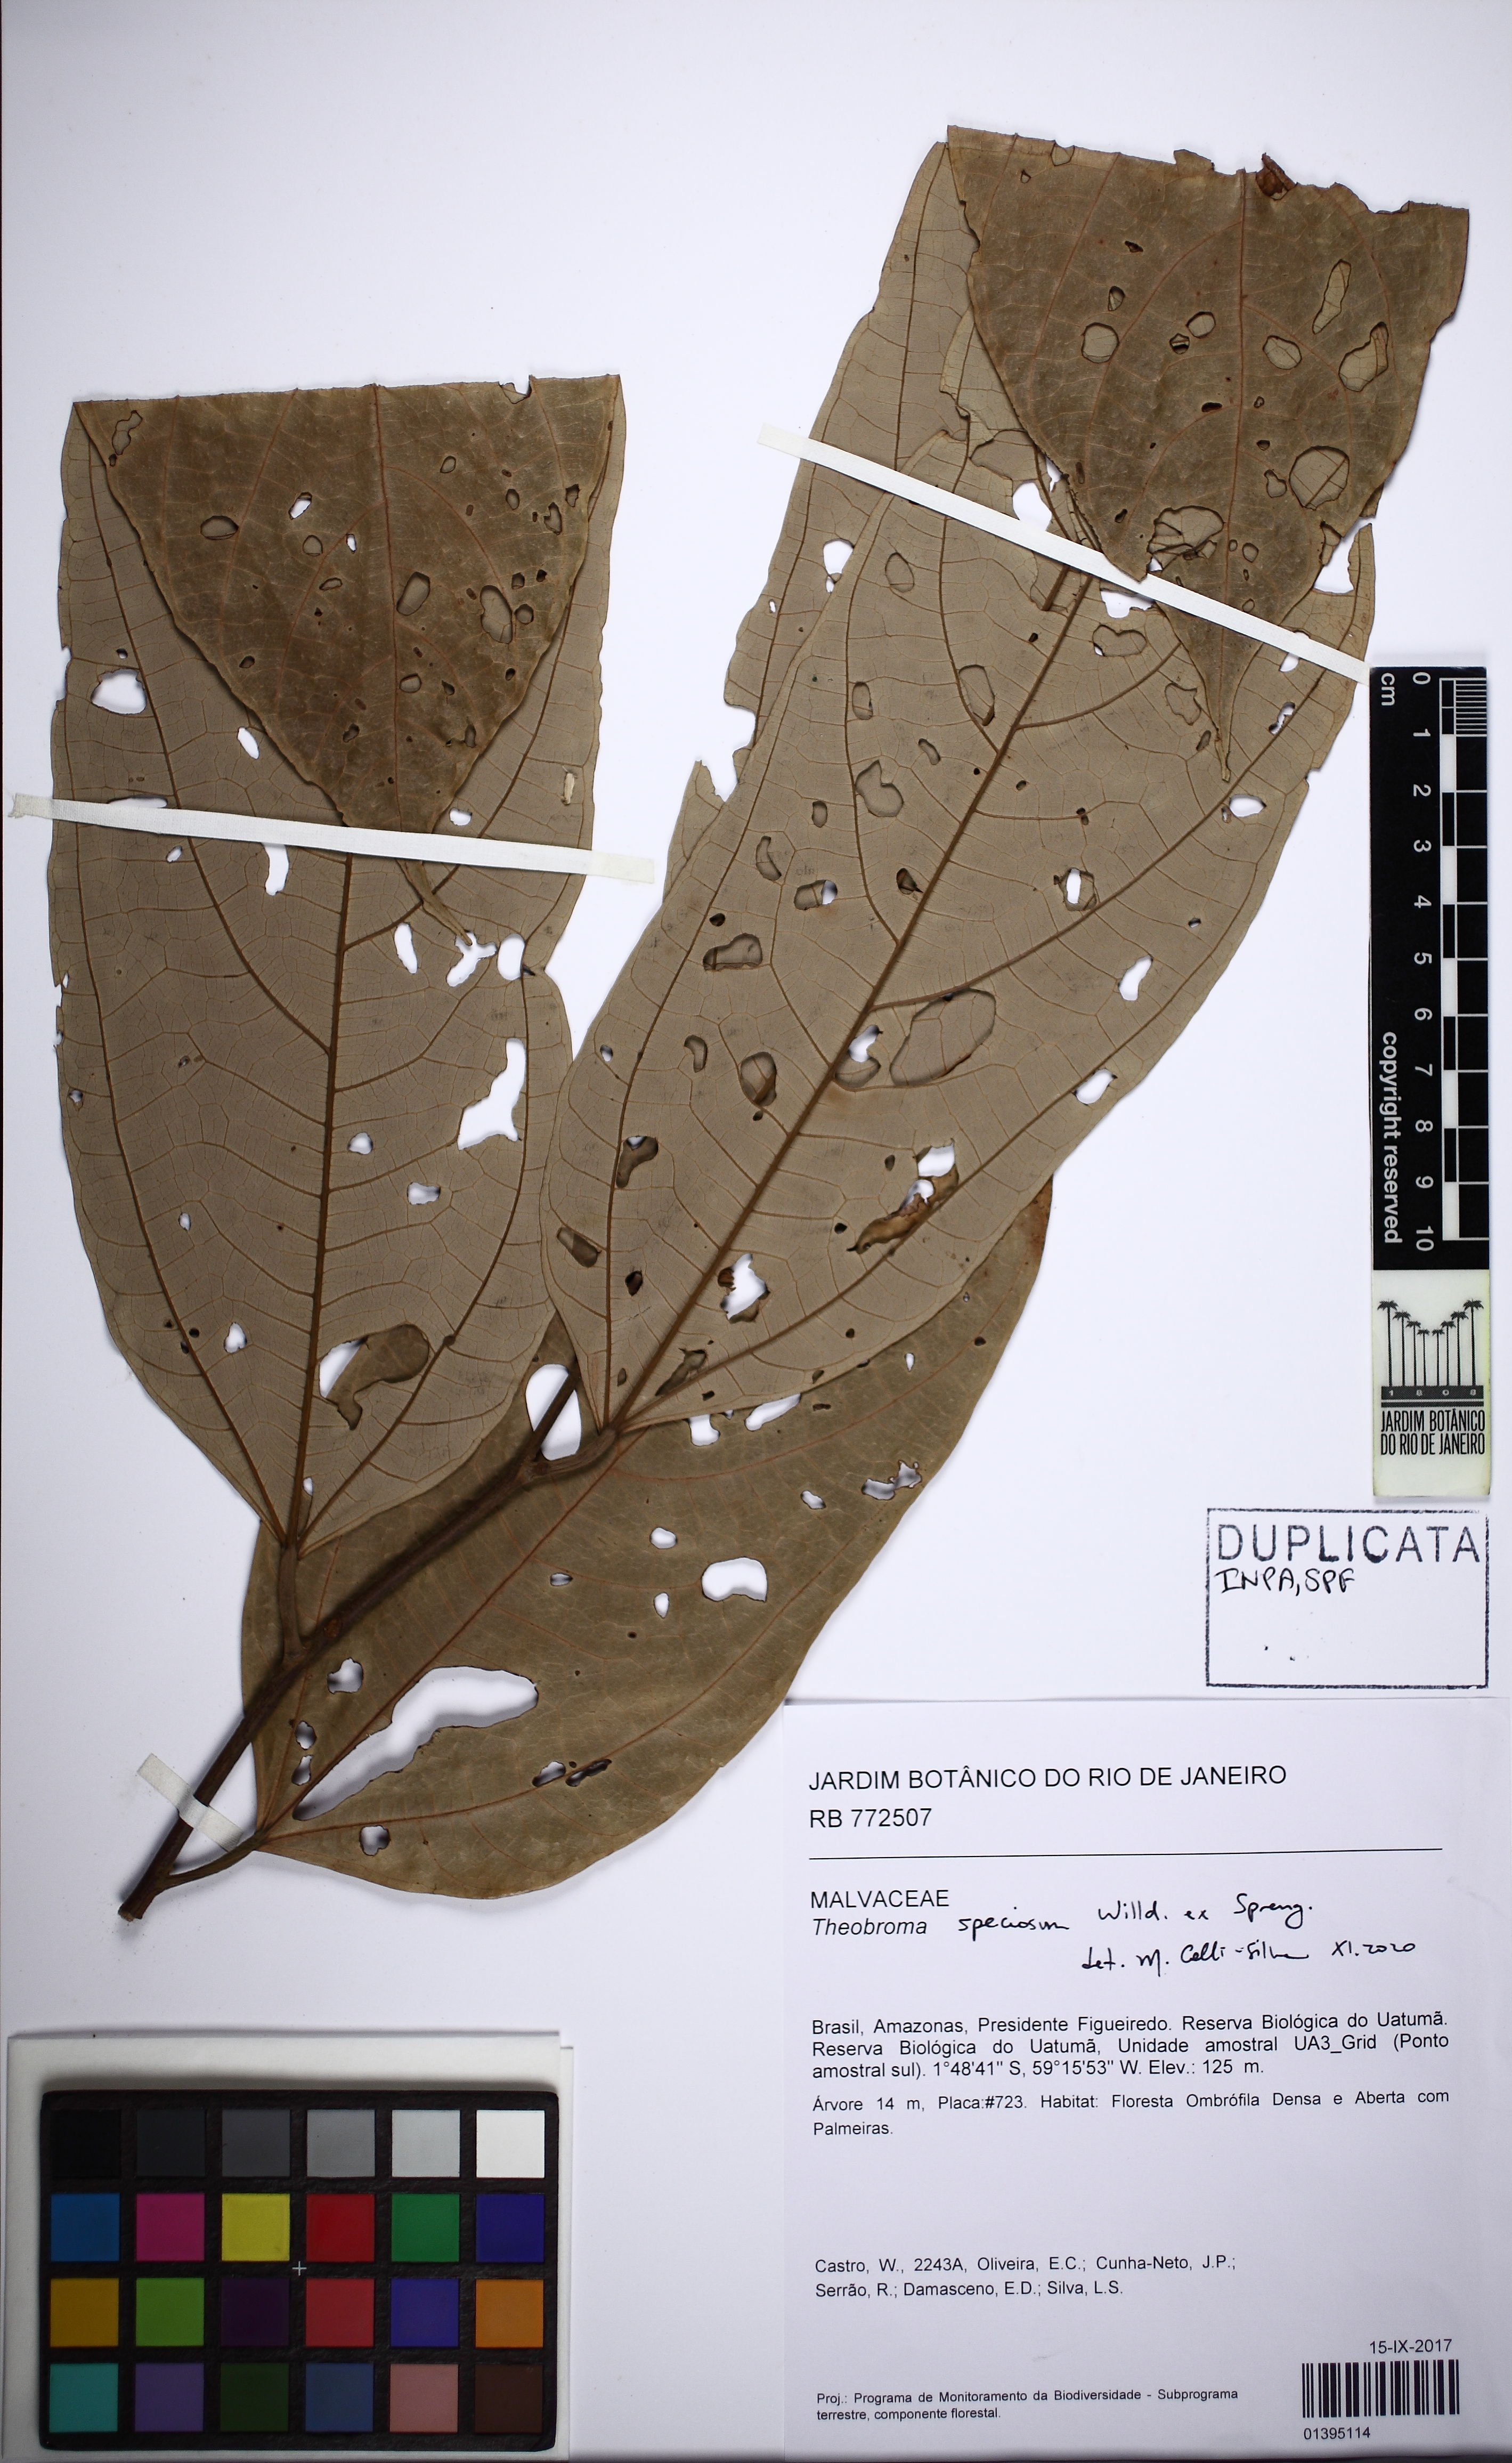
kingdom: Plantae
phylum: Tracheophyta
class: Magnoliopsida
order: Malvales
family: Malvaceae
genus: Theobroma
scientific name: Theobroma speciosum
